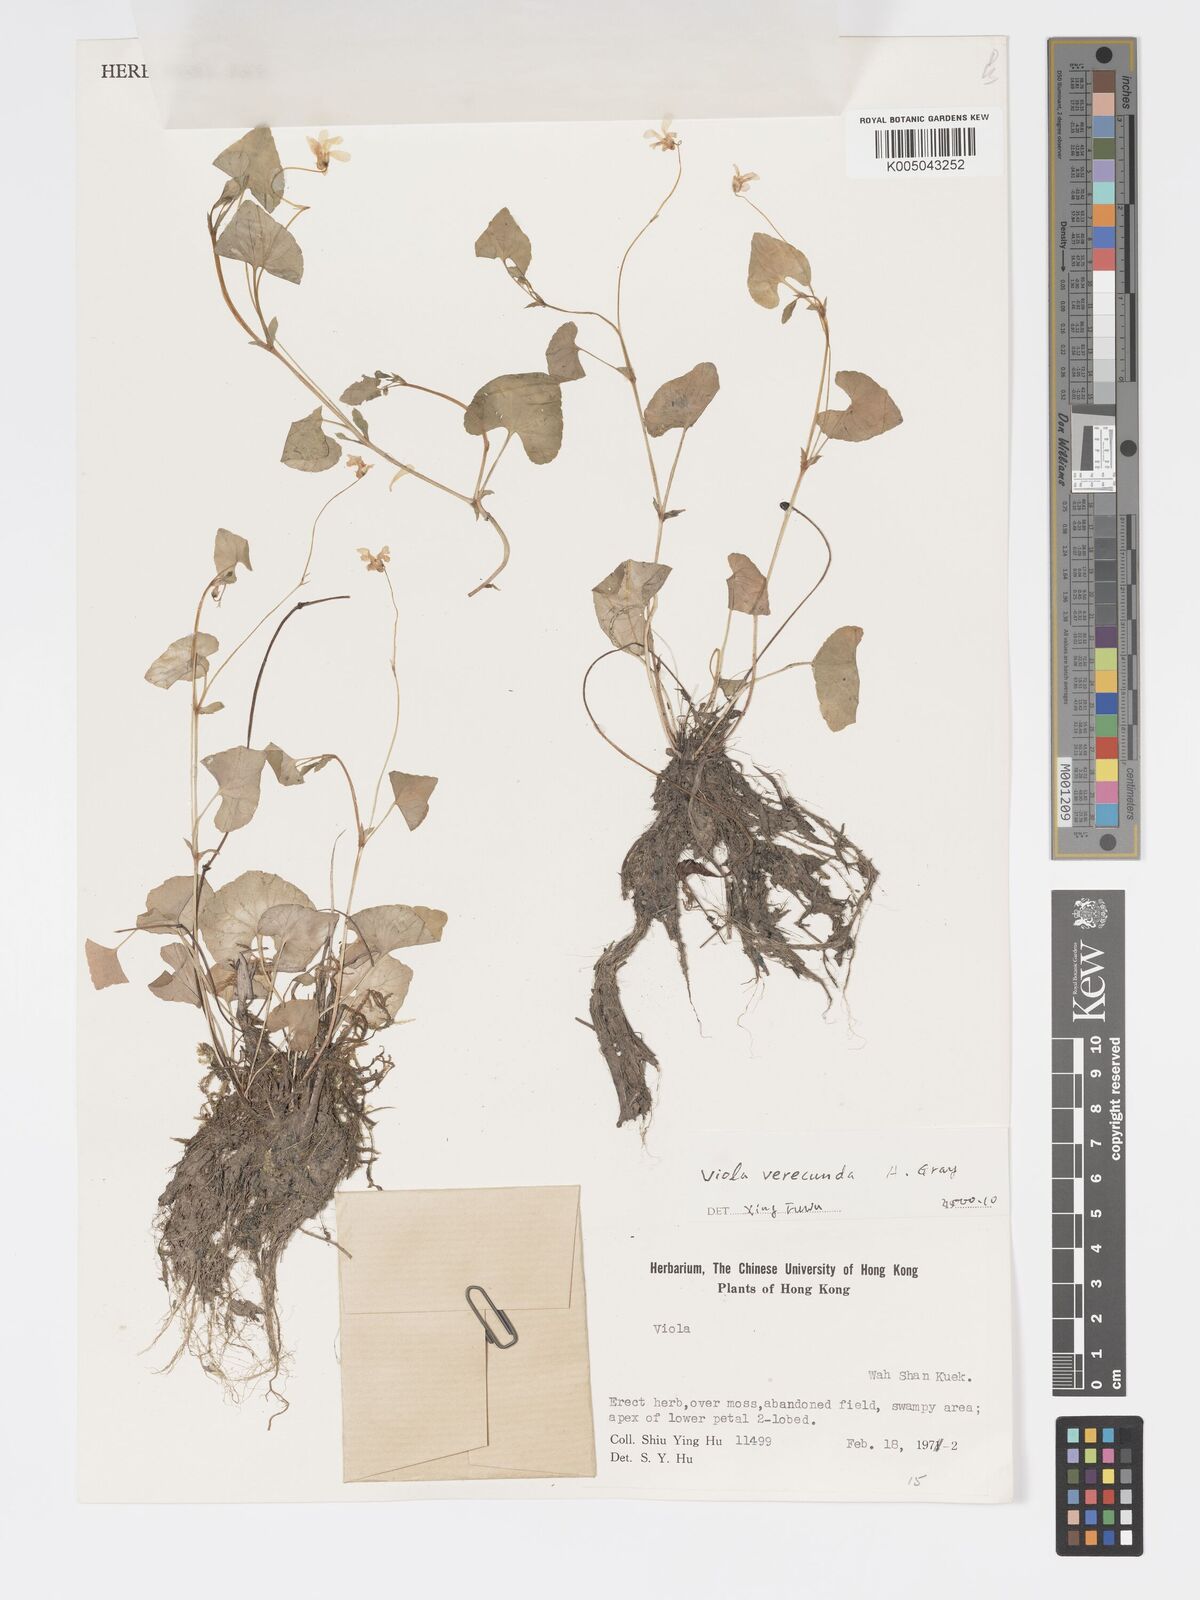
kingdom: Plantae
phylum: Tracheophyta
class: Magnoliopsida
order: Malpighiales
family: Violaceae
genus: Viola
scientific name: Viola hamiltoniana
